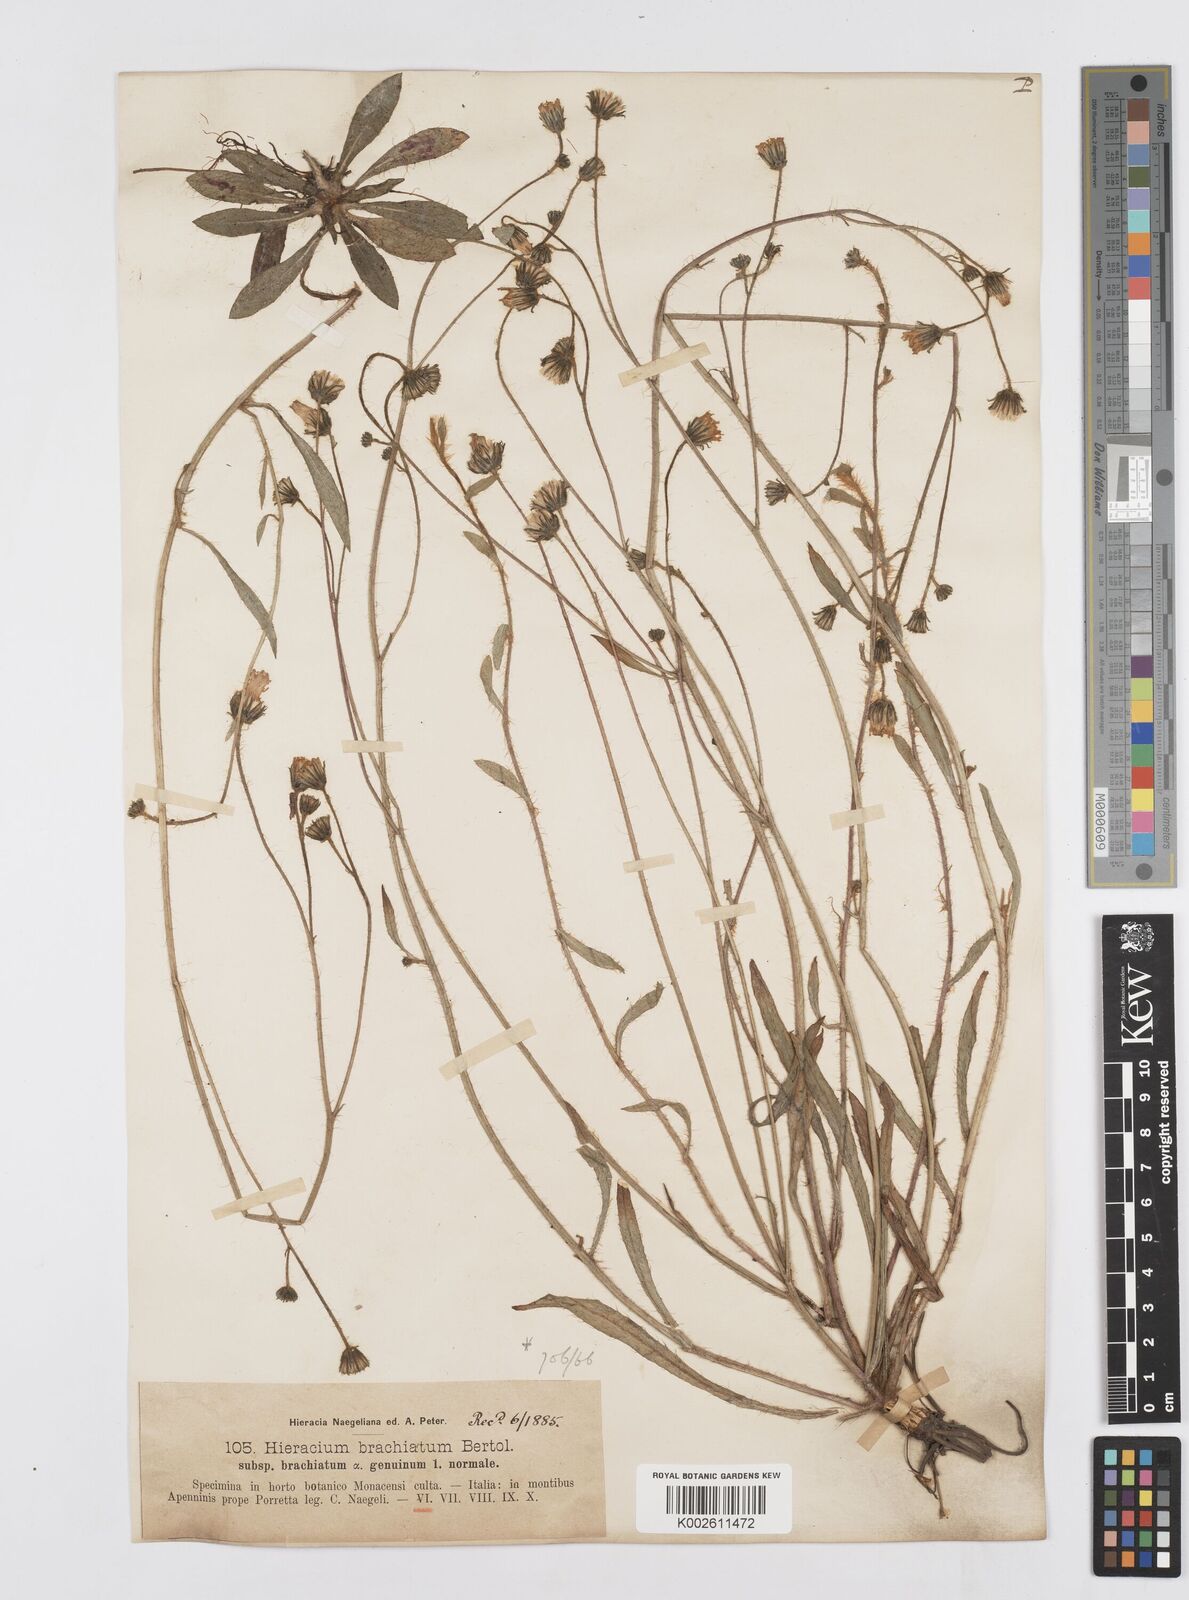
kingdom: Plantae
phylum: Tracheophyta
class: Magnoliopsida
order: Asterales
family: Asteraceae
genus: Pilosella
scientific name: Pilosella acutifolia
